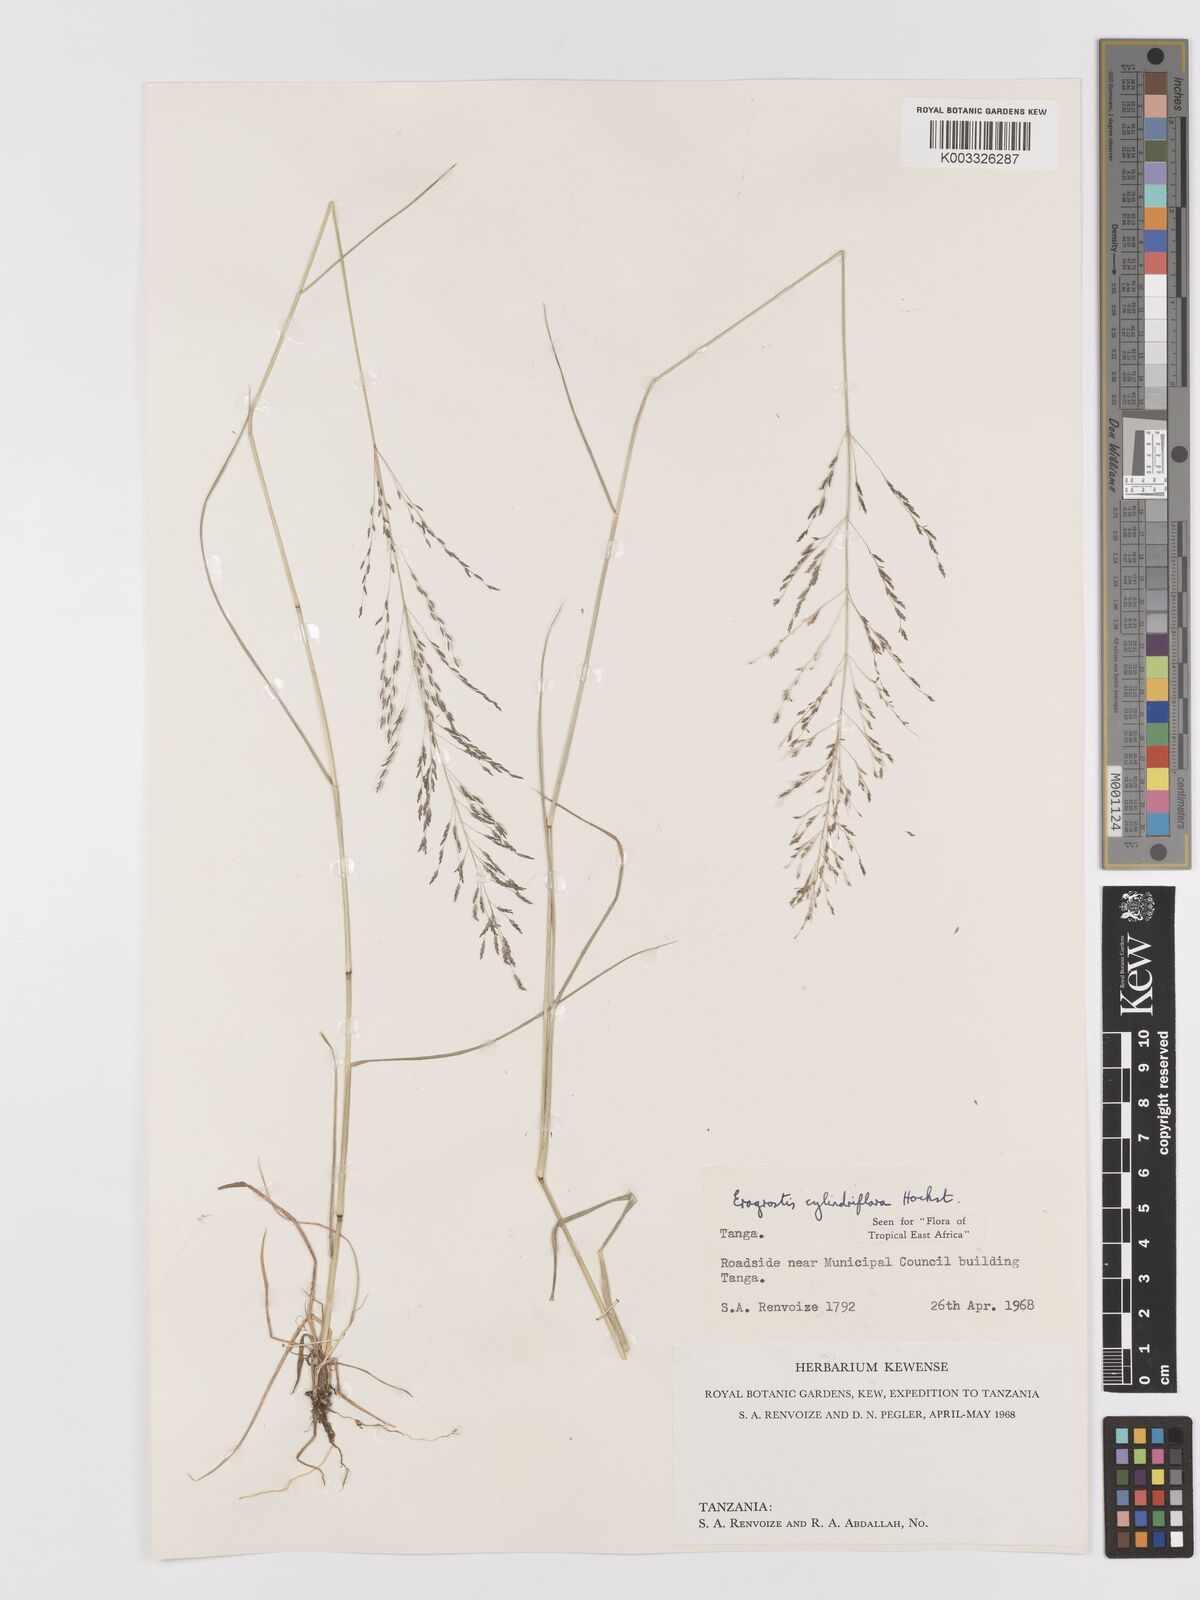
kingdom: Plantae
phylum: Tracheophyta
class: Liliopsida
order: Poales
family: Poaceae
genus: Eragrostis
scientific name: Eragrostis cylindriflora
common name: Cylinderflower lovegrass
